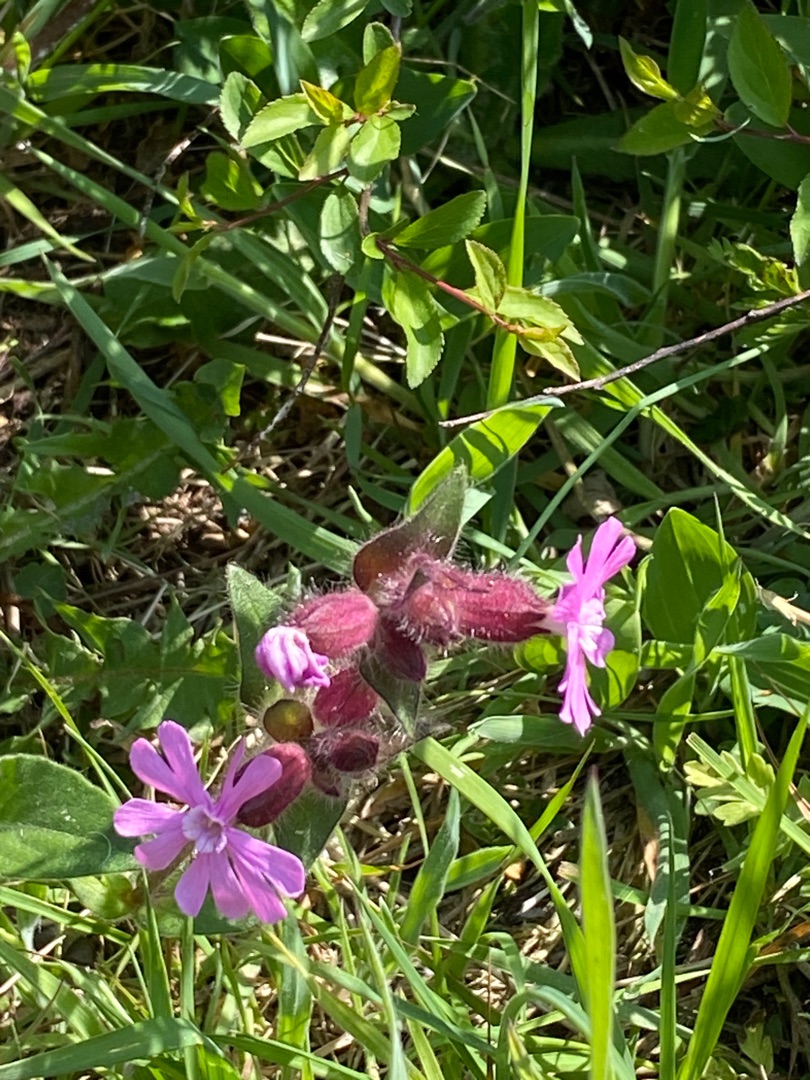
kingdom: Plantae
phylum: Tracheophyta
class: Magnoliopsida
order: Caryophyllales
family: Caryophyllaceae
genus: Silene
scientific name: Silene dioica
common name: Dagpragtstjerne
